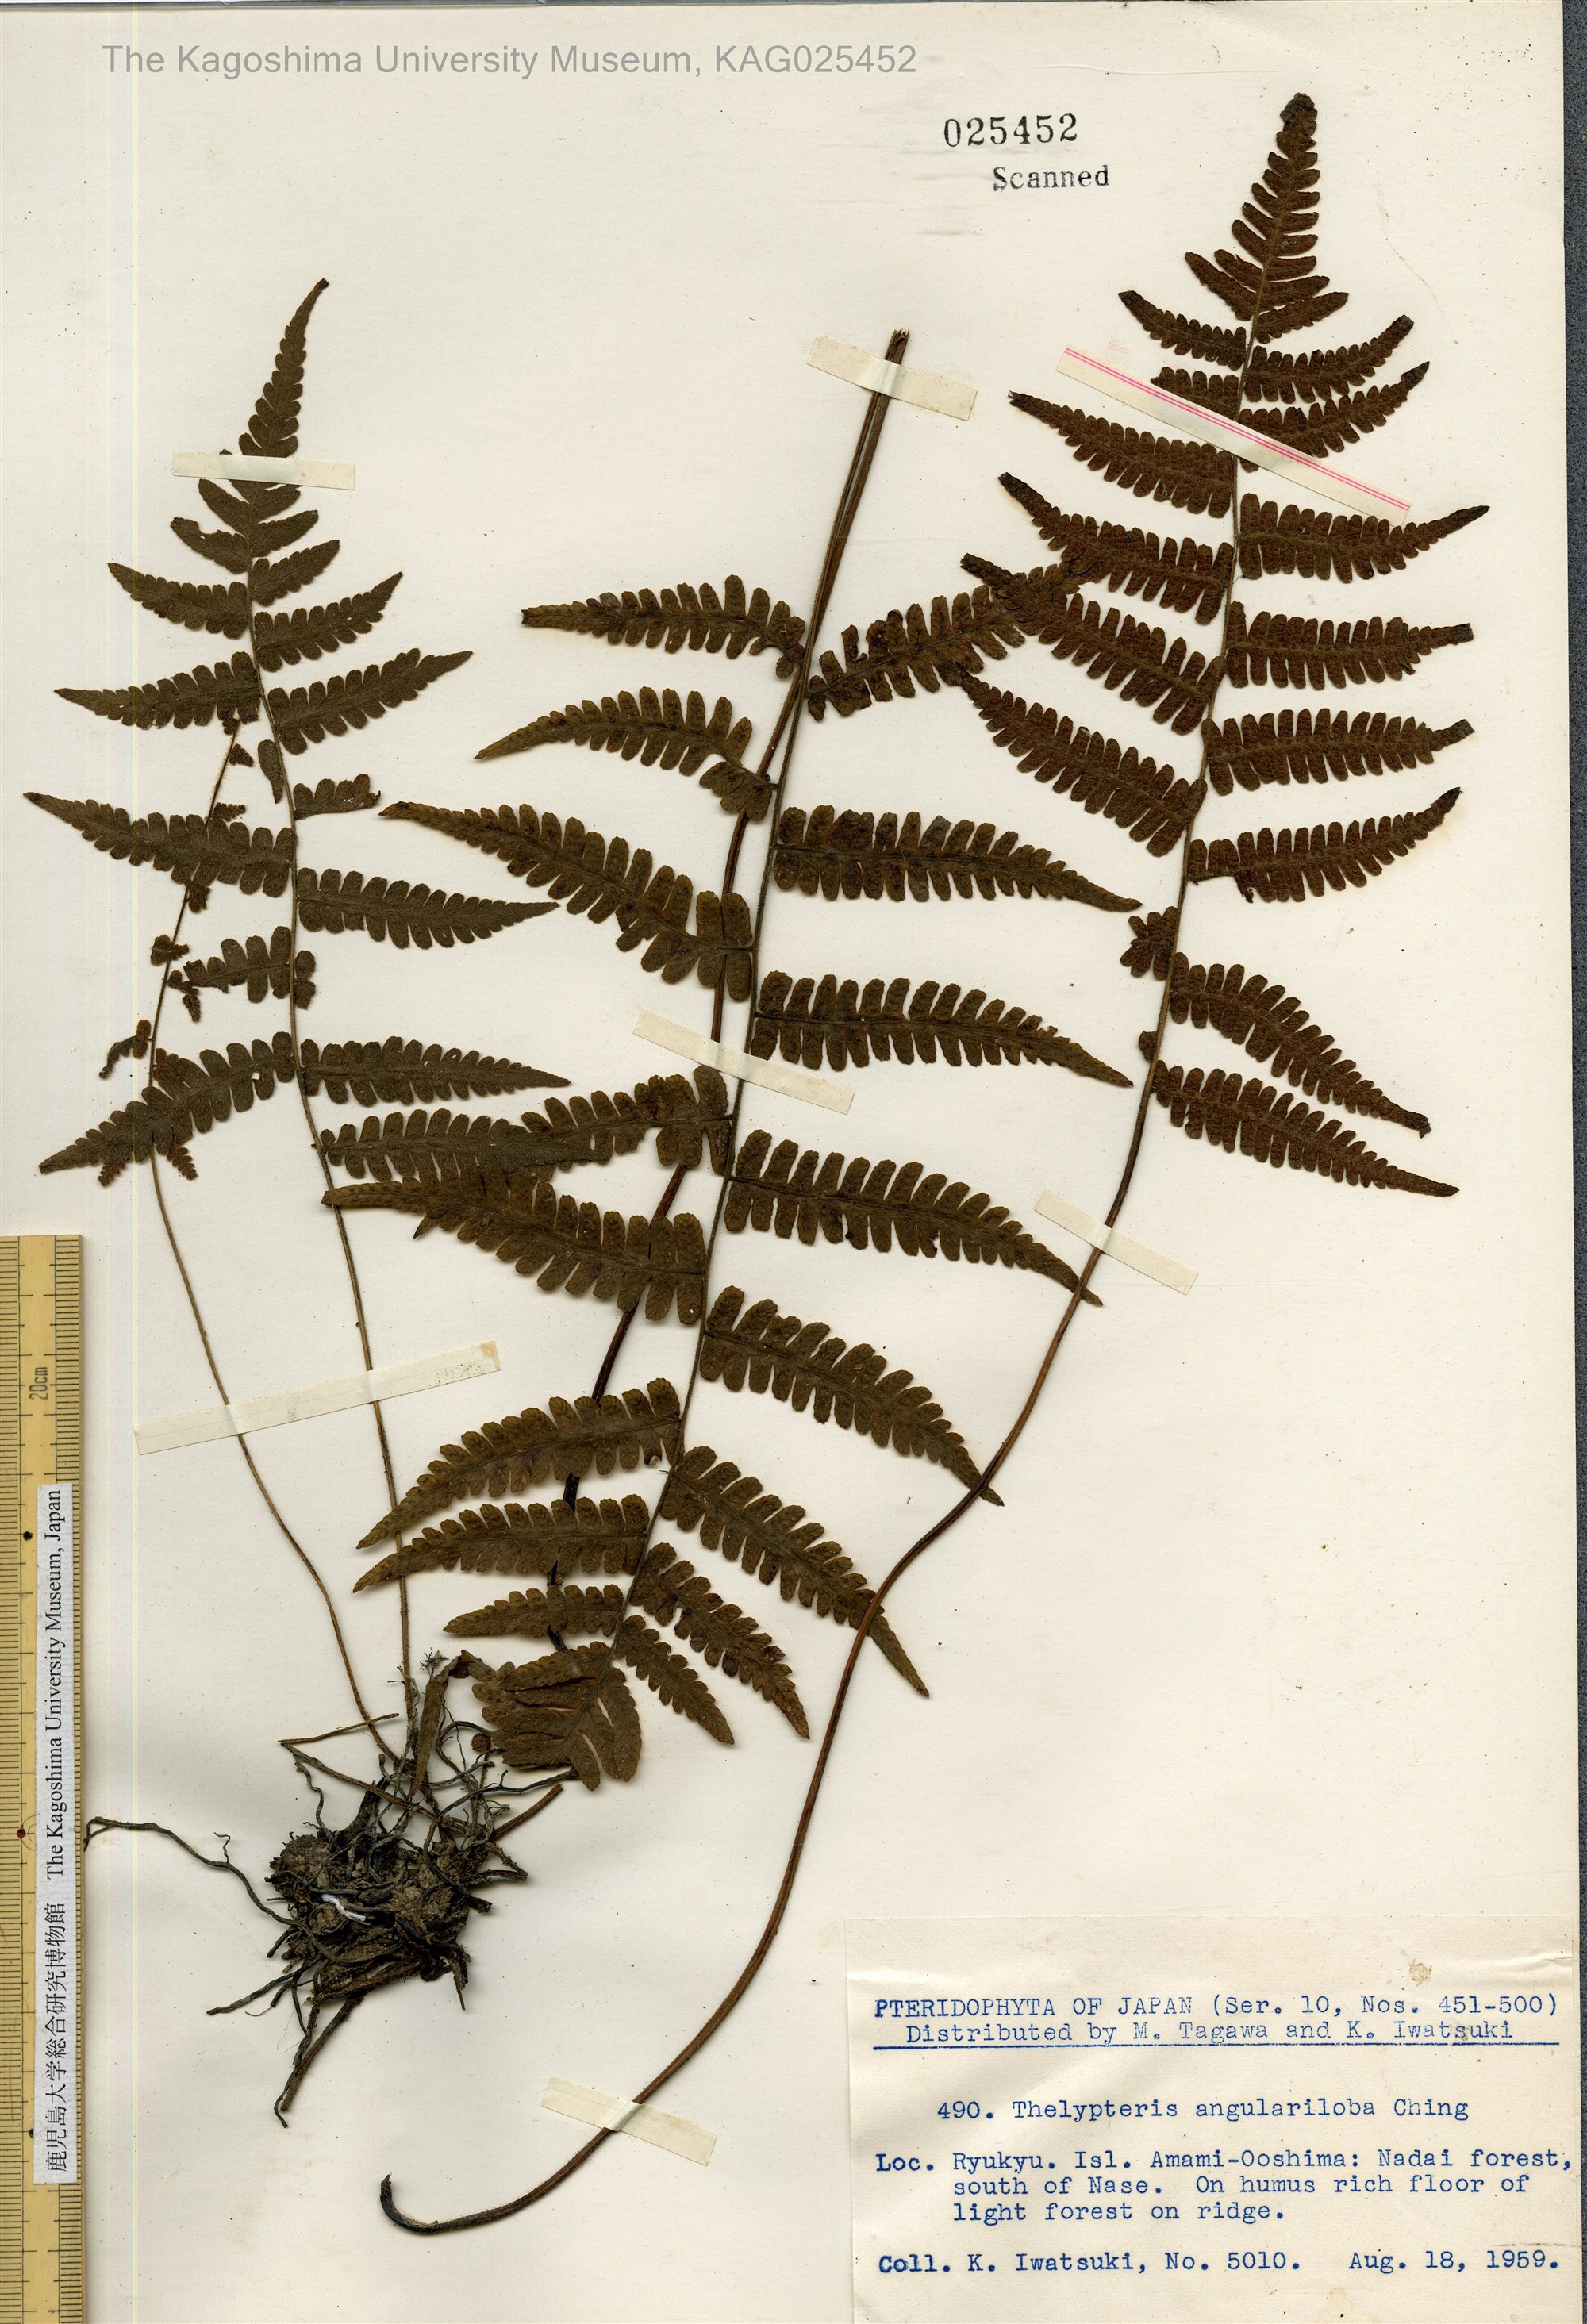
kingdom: Plantae
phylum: Tracheophyta
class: Polypodiopsida
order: Polypodiales
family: Thelypteridaceae
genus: Coryphopteris
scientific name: Coryphopteris hirsutipes
